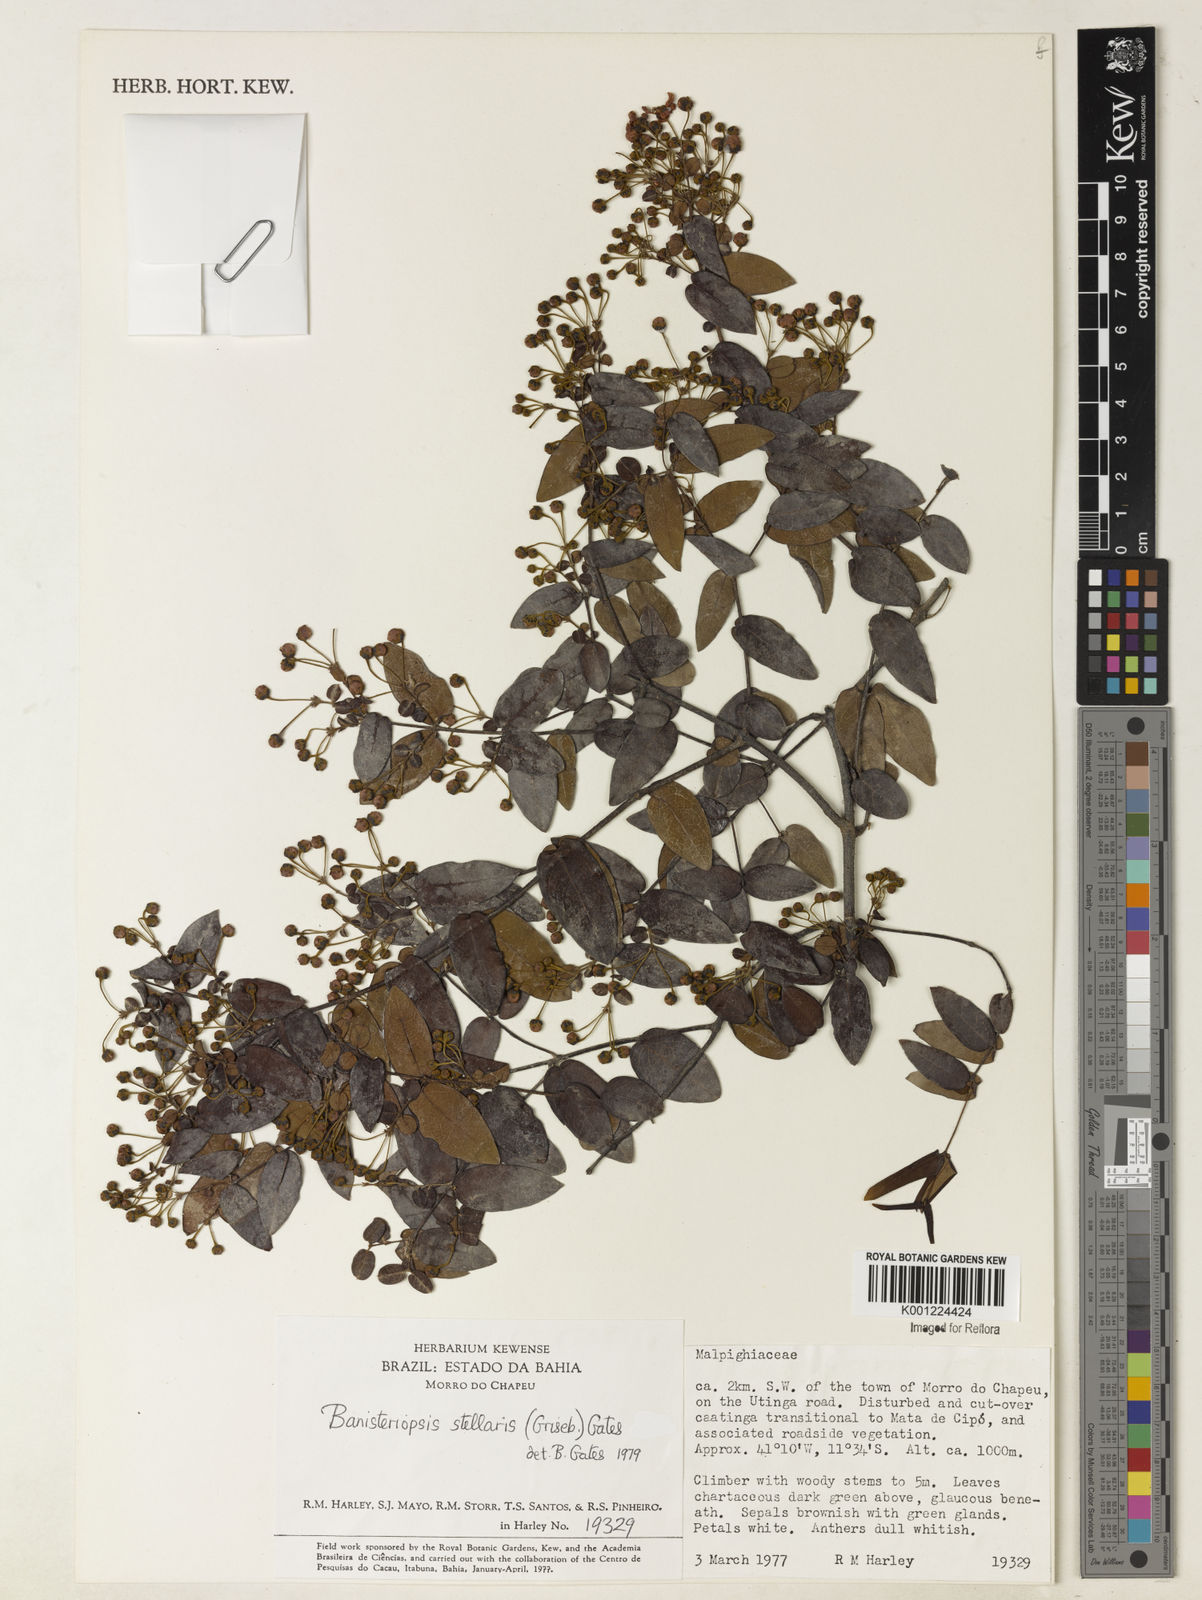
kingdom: Plantae
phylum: Tracheophyta
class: Magnoliopsida
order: Malpighiales
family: Malpighiaceae
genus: Banisteriopsis
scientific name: Banisteriopsis stellaris
